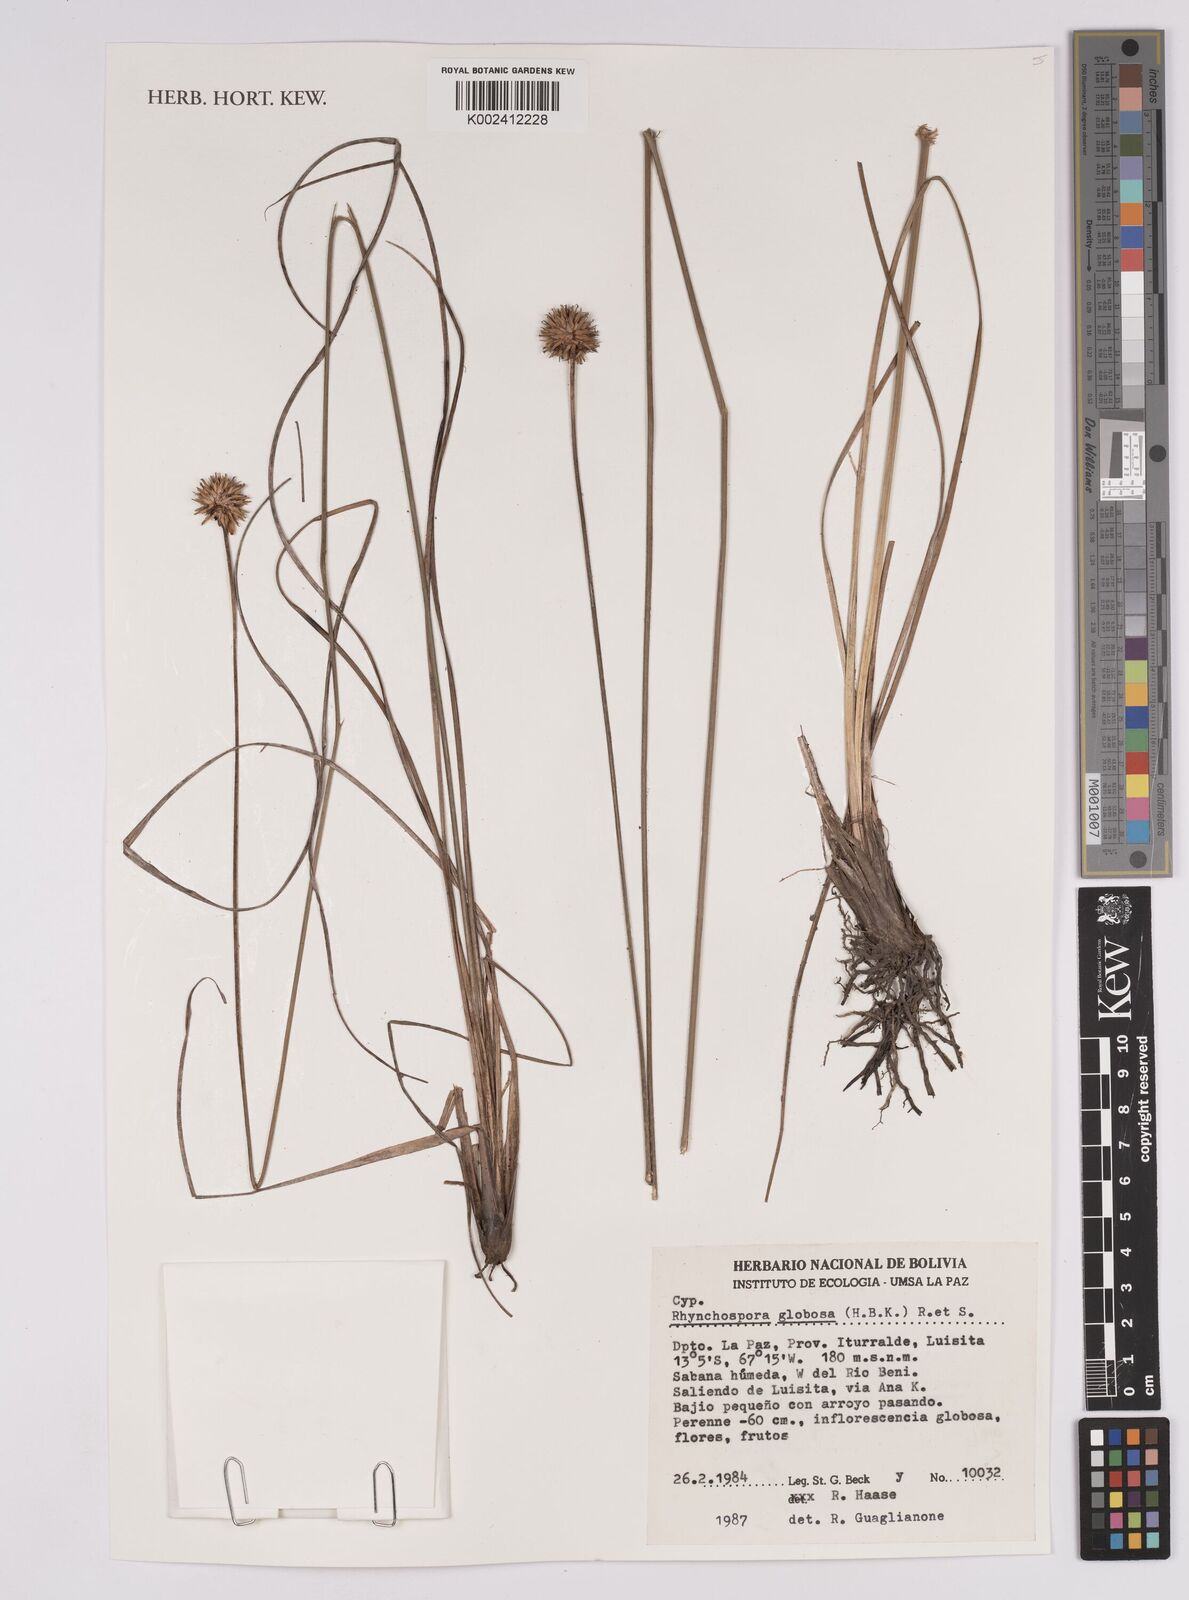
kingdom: Plantae
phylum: Tracheophyta
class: Liliopsida
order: Poales
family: Cyperaceae
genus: Rhynchospora
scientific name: Rhynchospora globosa
